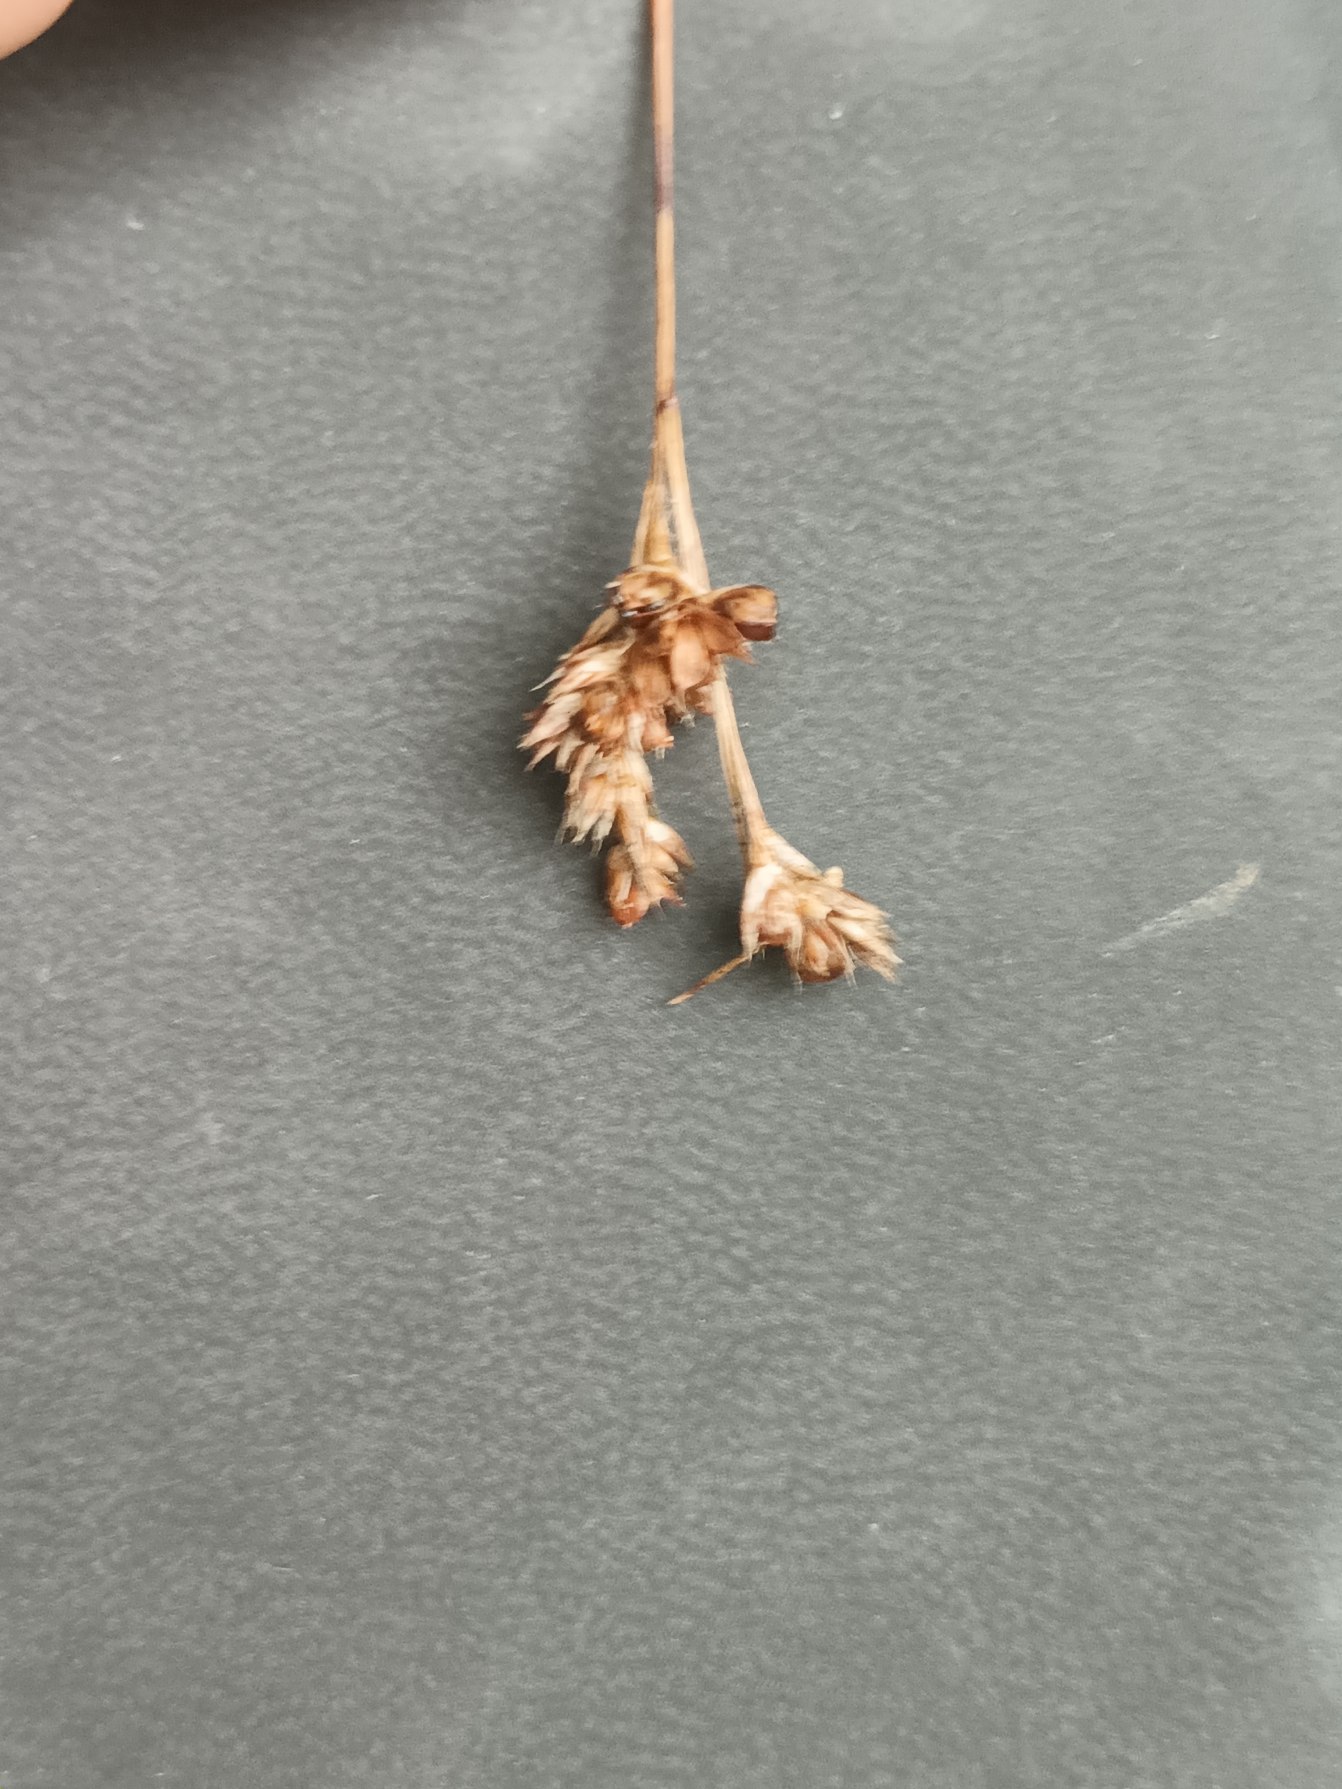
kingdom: Plantae
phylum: Tracheophyta
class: Liliopsida
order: Poales
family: Juncaceae
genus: Luzula
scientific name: Luzula multiflora
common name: Mangeblomstret frytle
